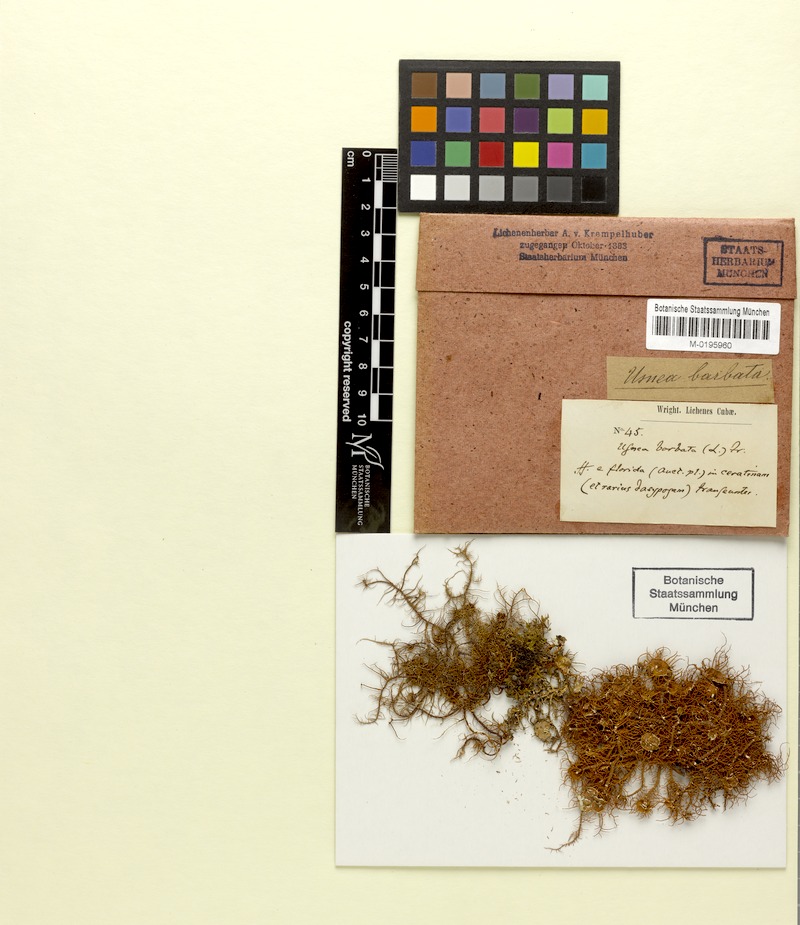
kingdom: Fungi
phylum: Ascomycota
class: Lecanoromycetes
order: Lecanorales
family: Parmeliaceae
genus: Usnea
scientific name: Usnea barbata
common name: Old man's beard lichen
